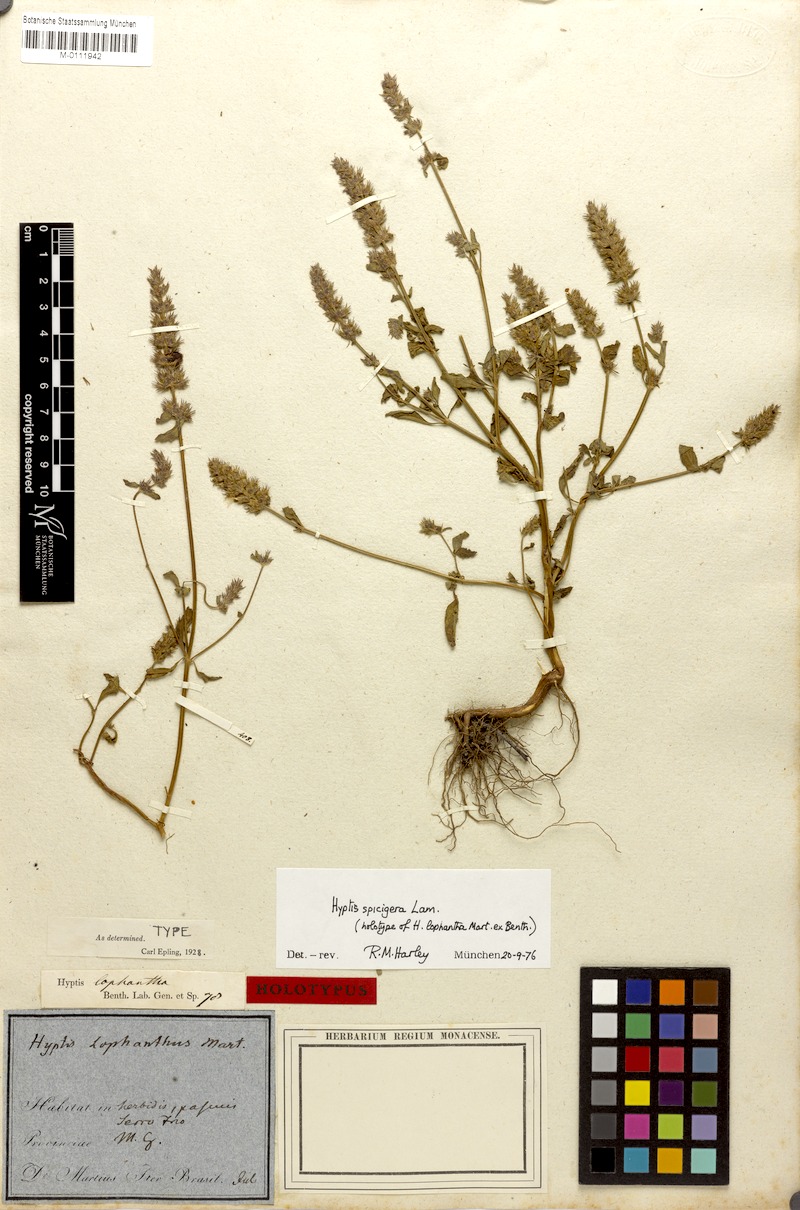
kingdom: Plantae
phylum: Tracheophyta
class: Magnoliopsida
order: Lamiales
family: Lamiaceae
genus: Cantinoa
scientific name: Cantinoa americana
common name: Black-sesame
